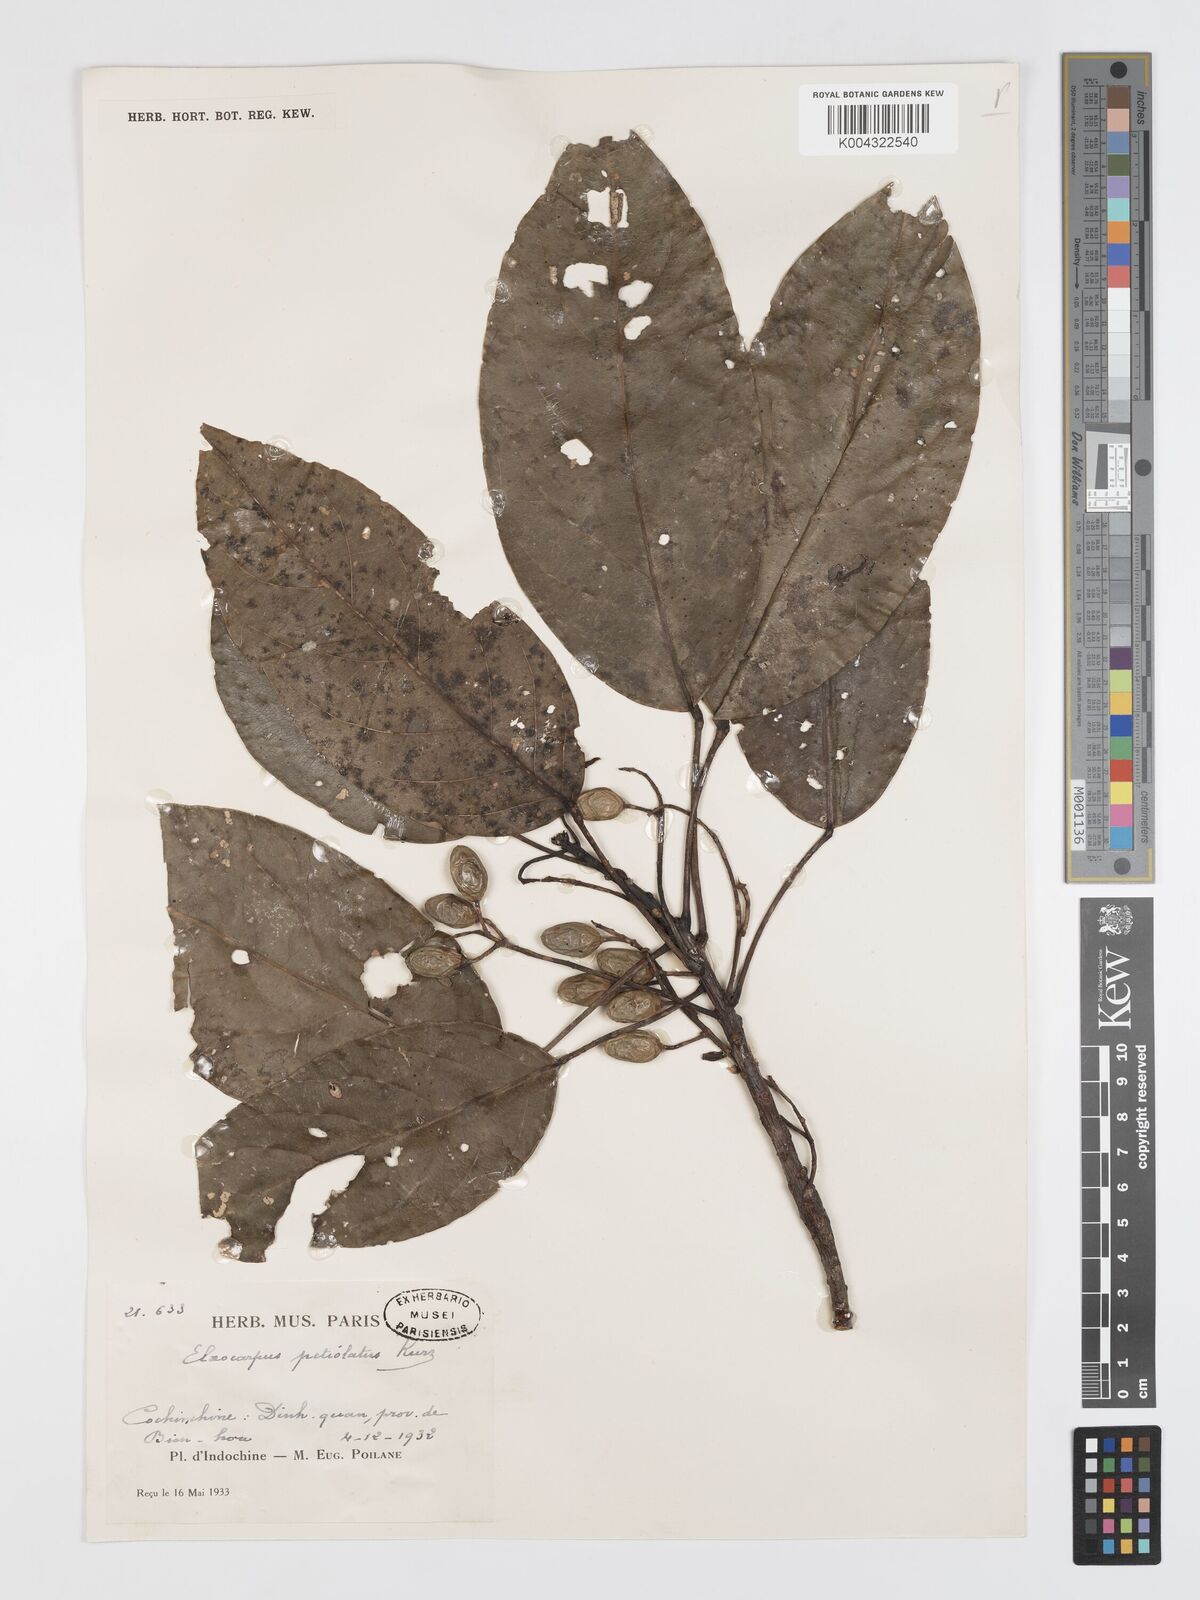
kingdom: Plantae
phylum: Tracheophyta
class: Magnoliopsida
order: Oxalidales
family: Elaeocarpaceae
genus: Elaeocarpus
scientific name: Elaeocarpus petiolatus
